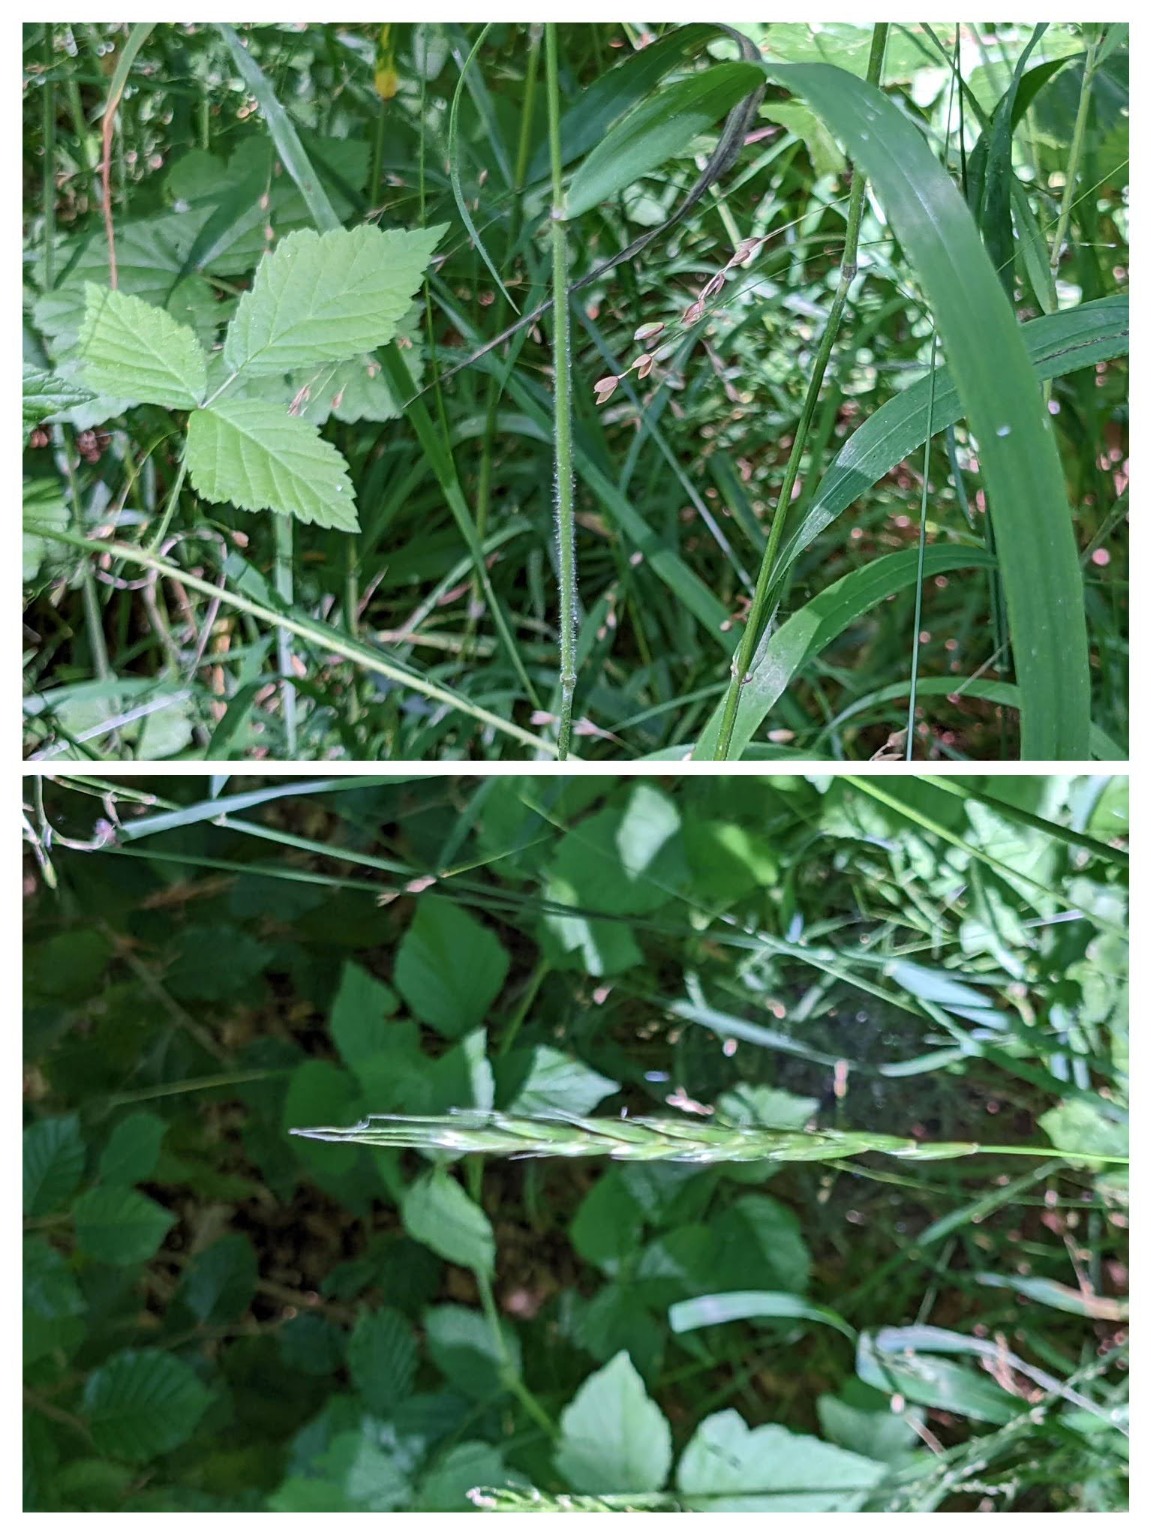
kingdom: Plantae
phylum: Tracheophyta
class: Liliopsida
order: Poales
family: Poaceae
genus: Elymus
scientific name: Elymus caninus
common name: Hundekvik
